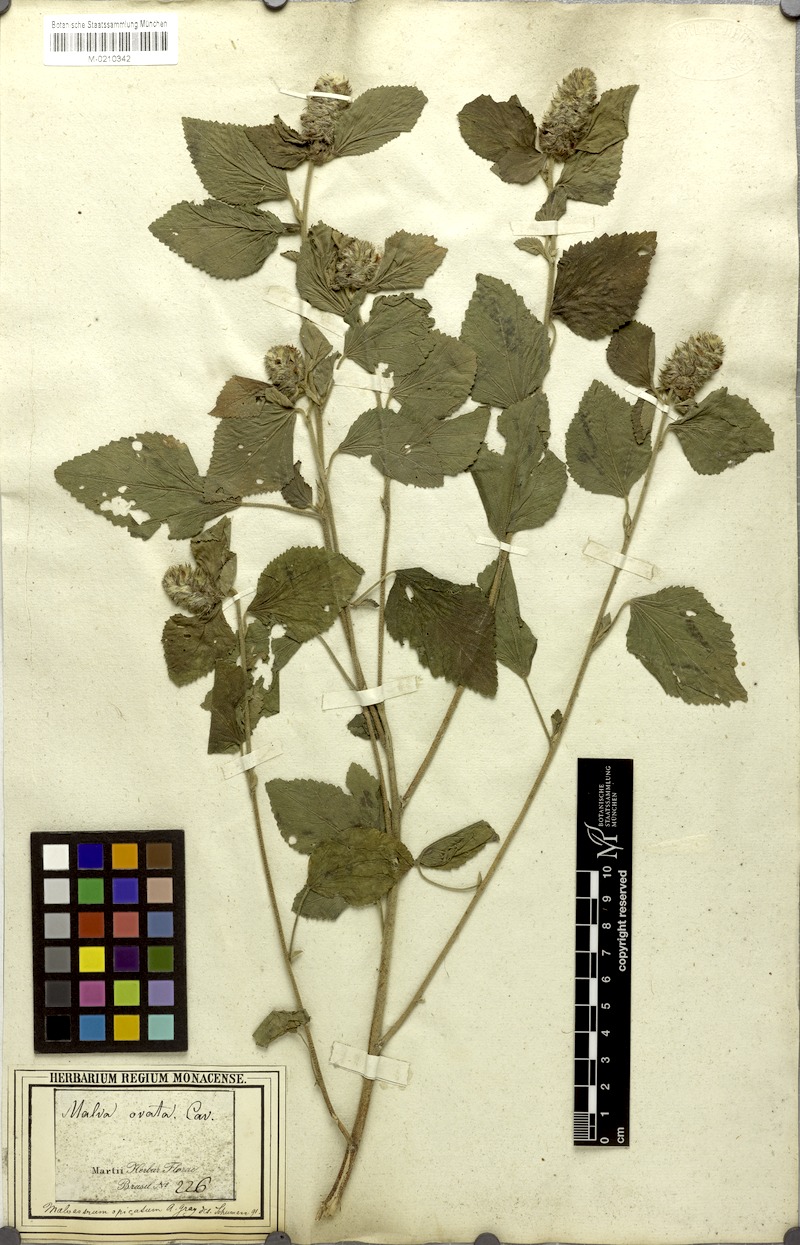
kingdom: Plantae
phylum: Tracheophyta
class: Magnoliopsida
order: Malvales
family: Malvaceae
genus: Melochia
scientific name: Melochia spicata
